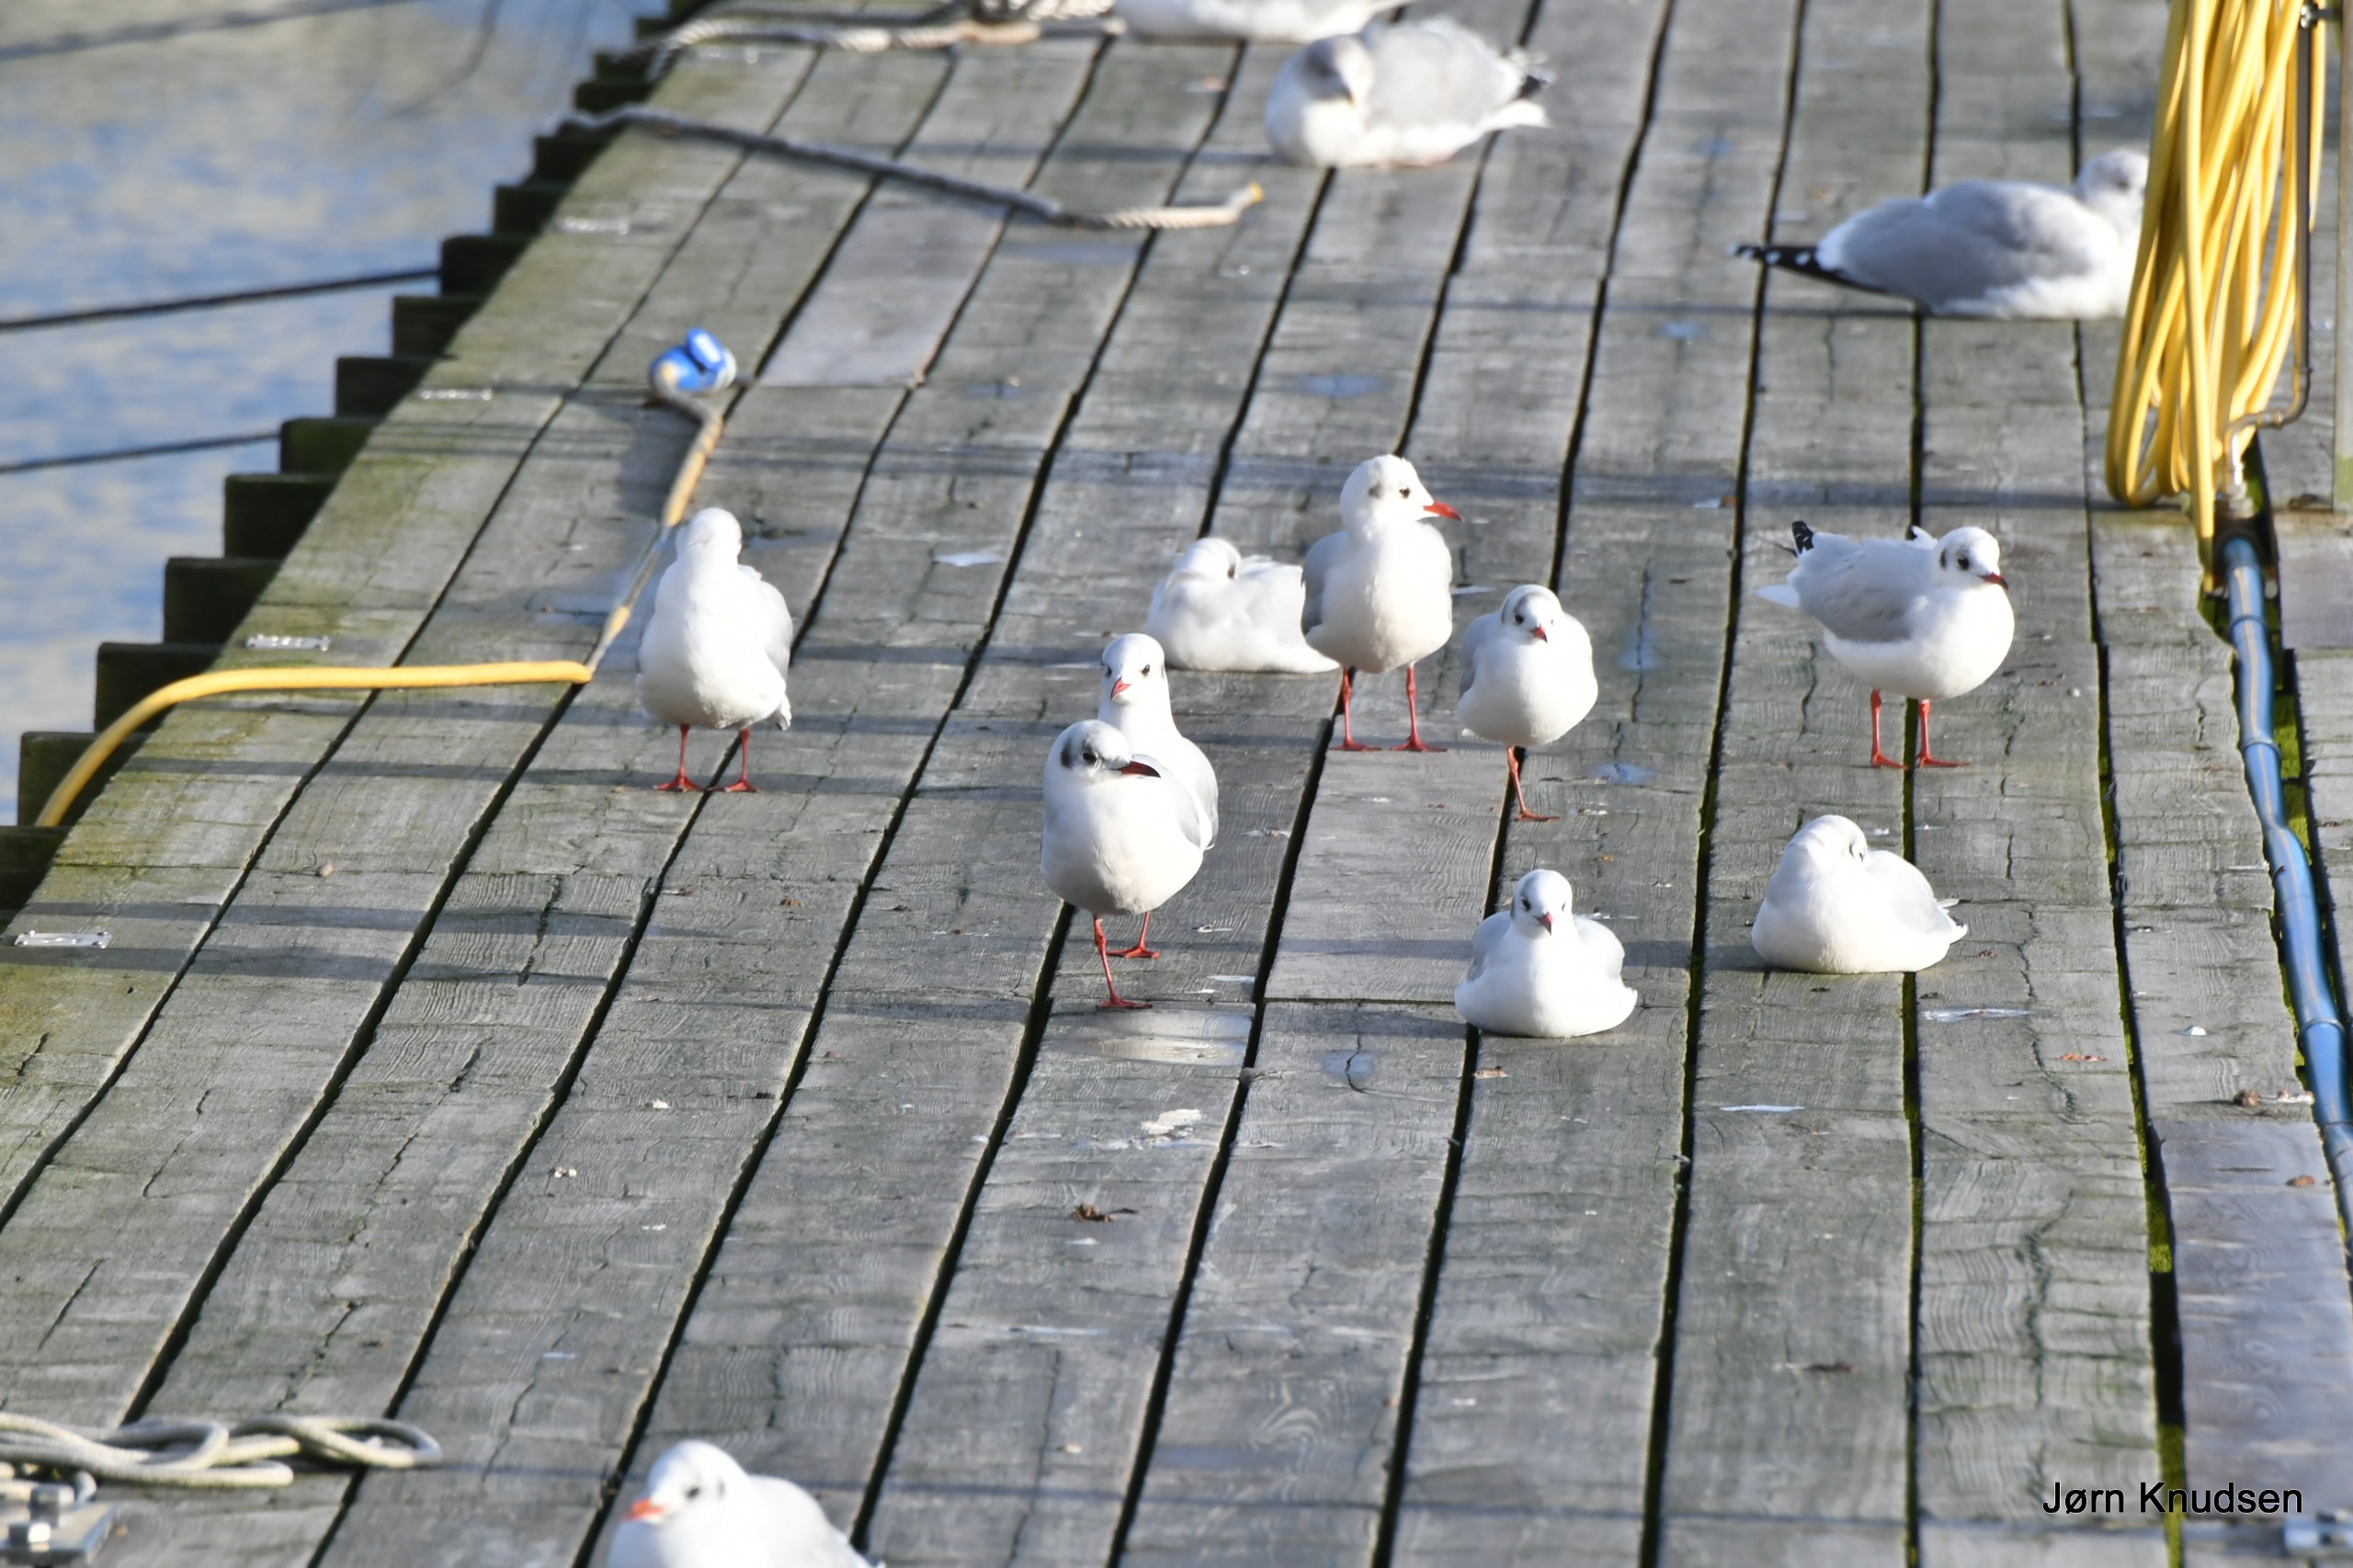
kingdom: Animalia
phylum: Chordata
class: Aves
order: Charadriiformes
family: Laridae
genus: Chroicocephalus
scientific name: Chroicocephalus ridibundus
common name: Hættemåge
